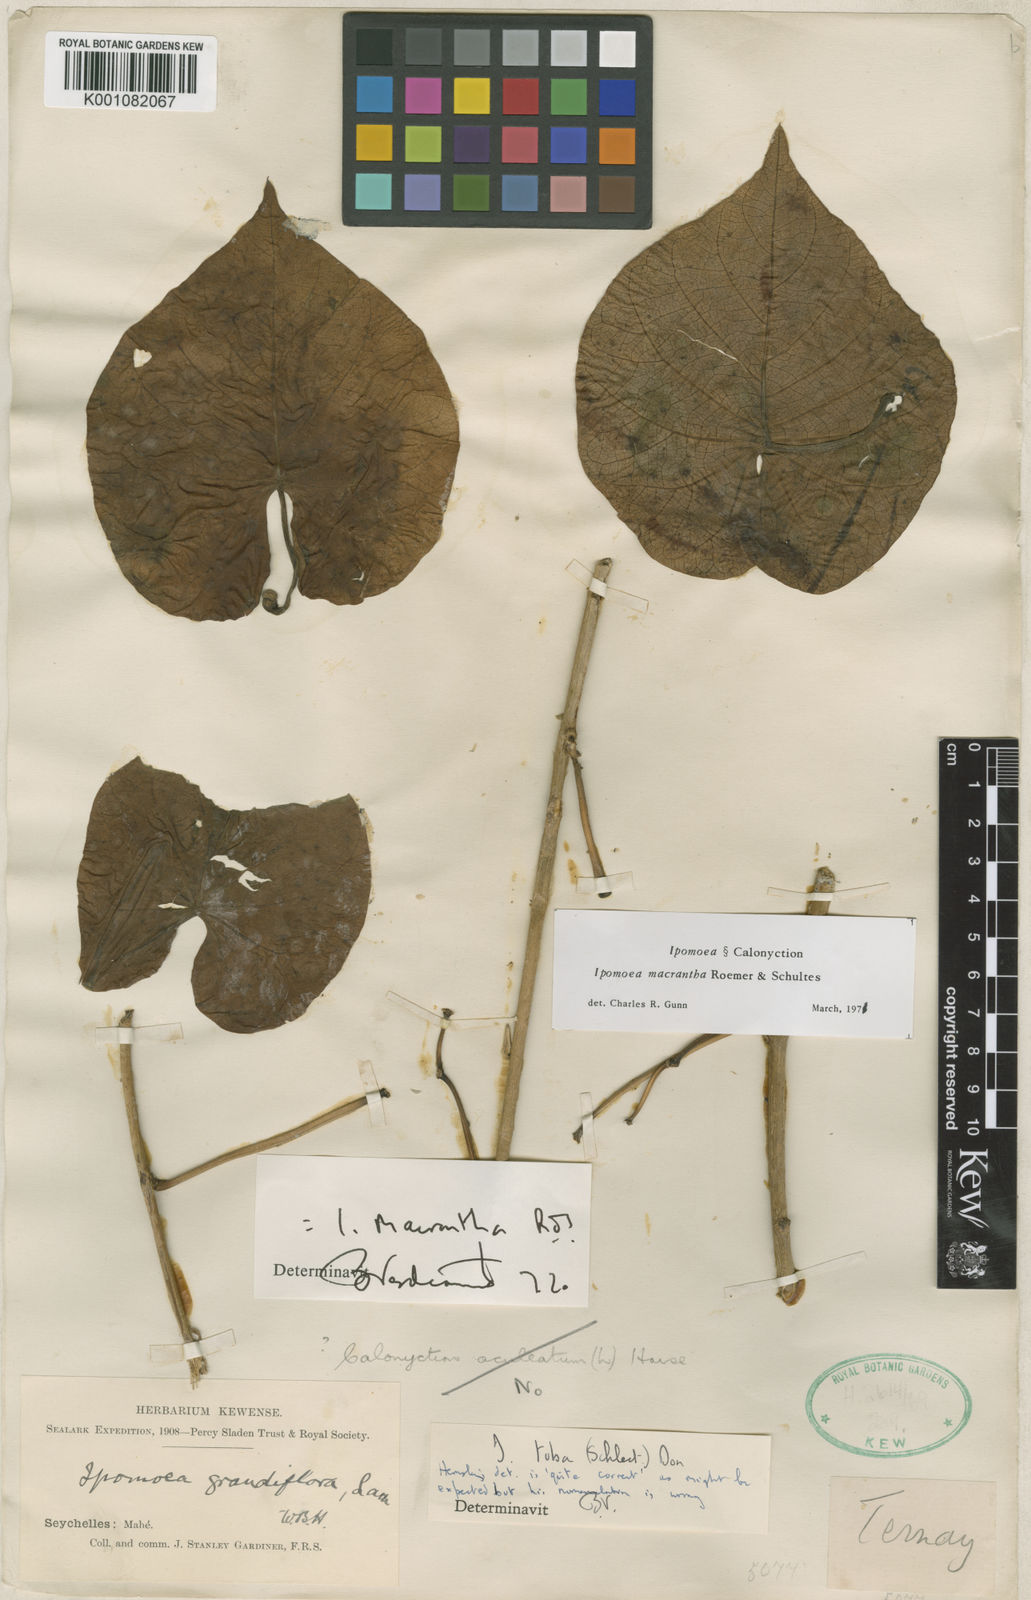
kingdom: Plantae
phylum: Tracheophyta
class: Magnoliopsida
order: Solanales
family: Convolvulaceae
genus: Ipomoea
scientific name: Ipomoea violacea
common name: Beach moonflower
